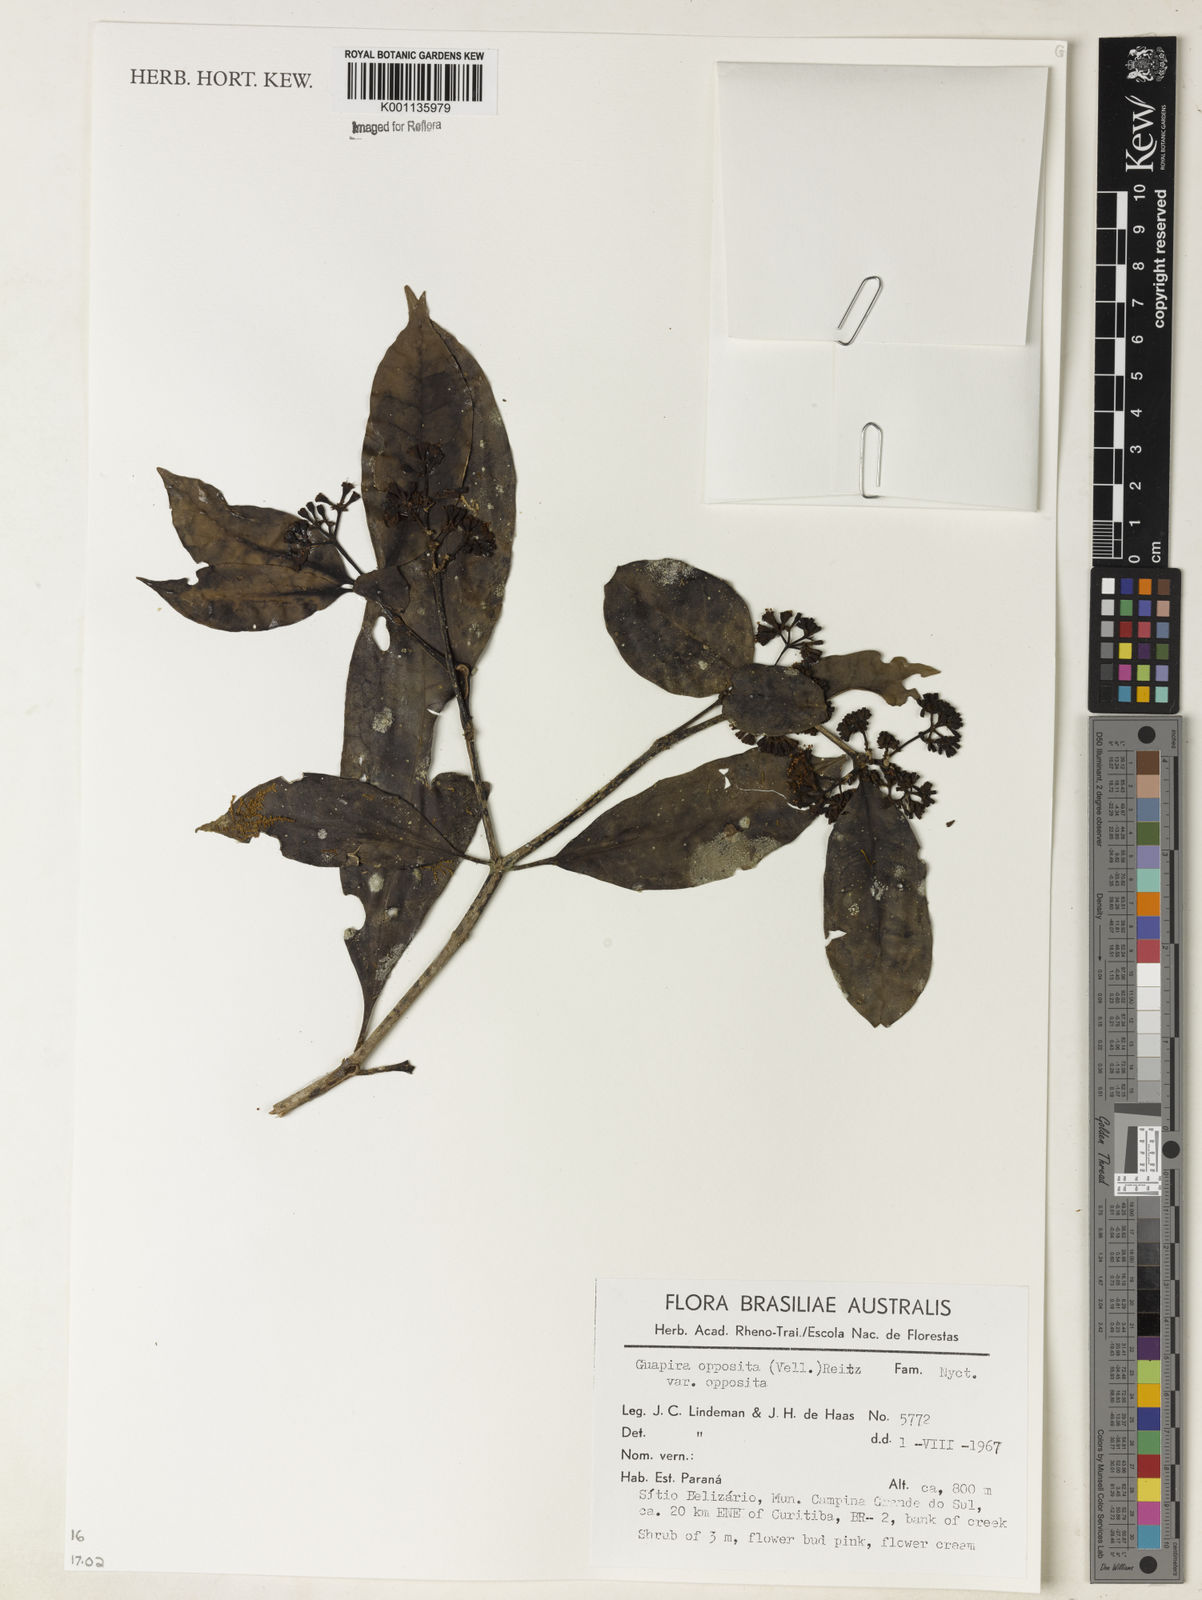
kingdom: Plantae
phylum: Tracheophyta
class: Magnoliopsida
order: Caryophyllales
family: Nyctaginaceae
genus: Guapira
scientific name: Guapira opposita
